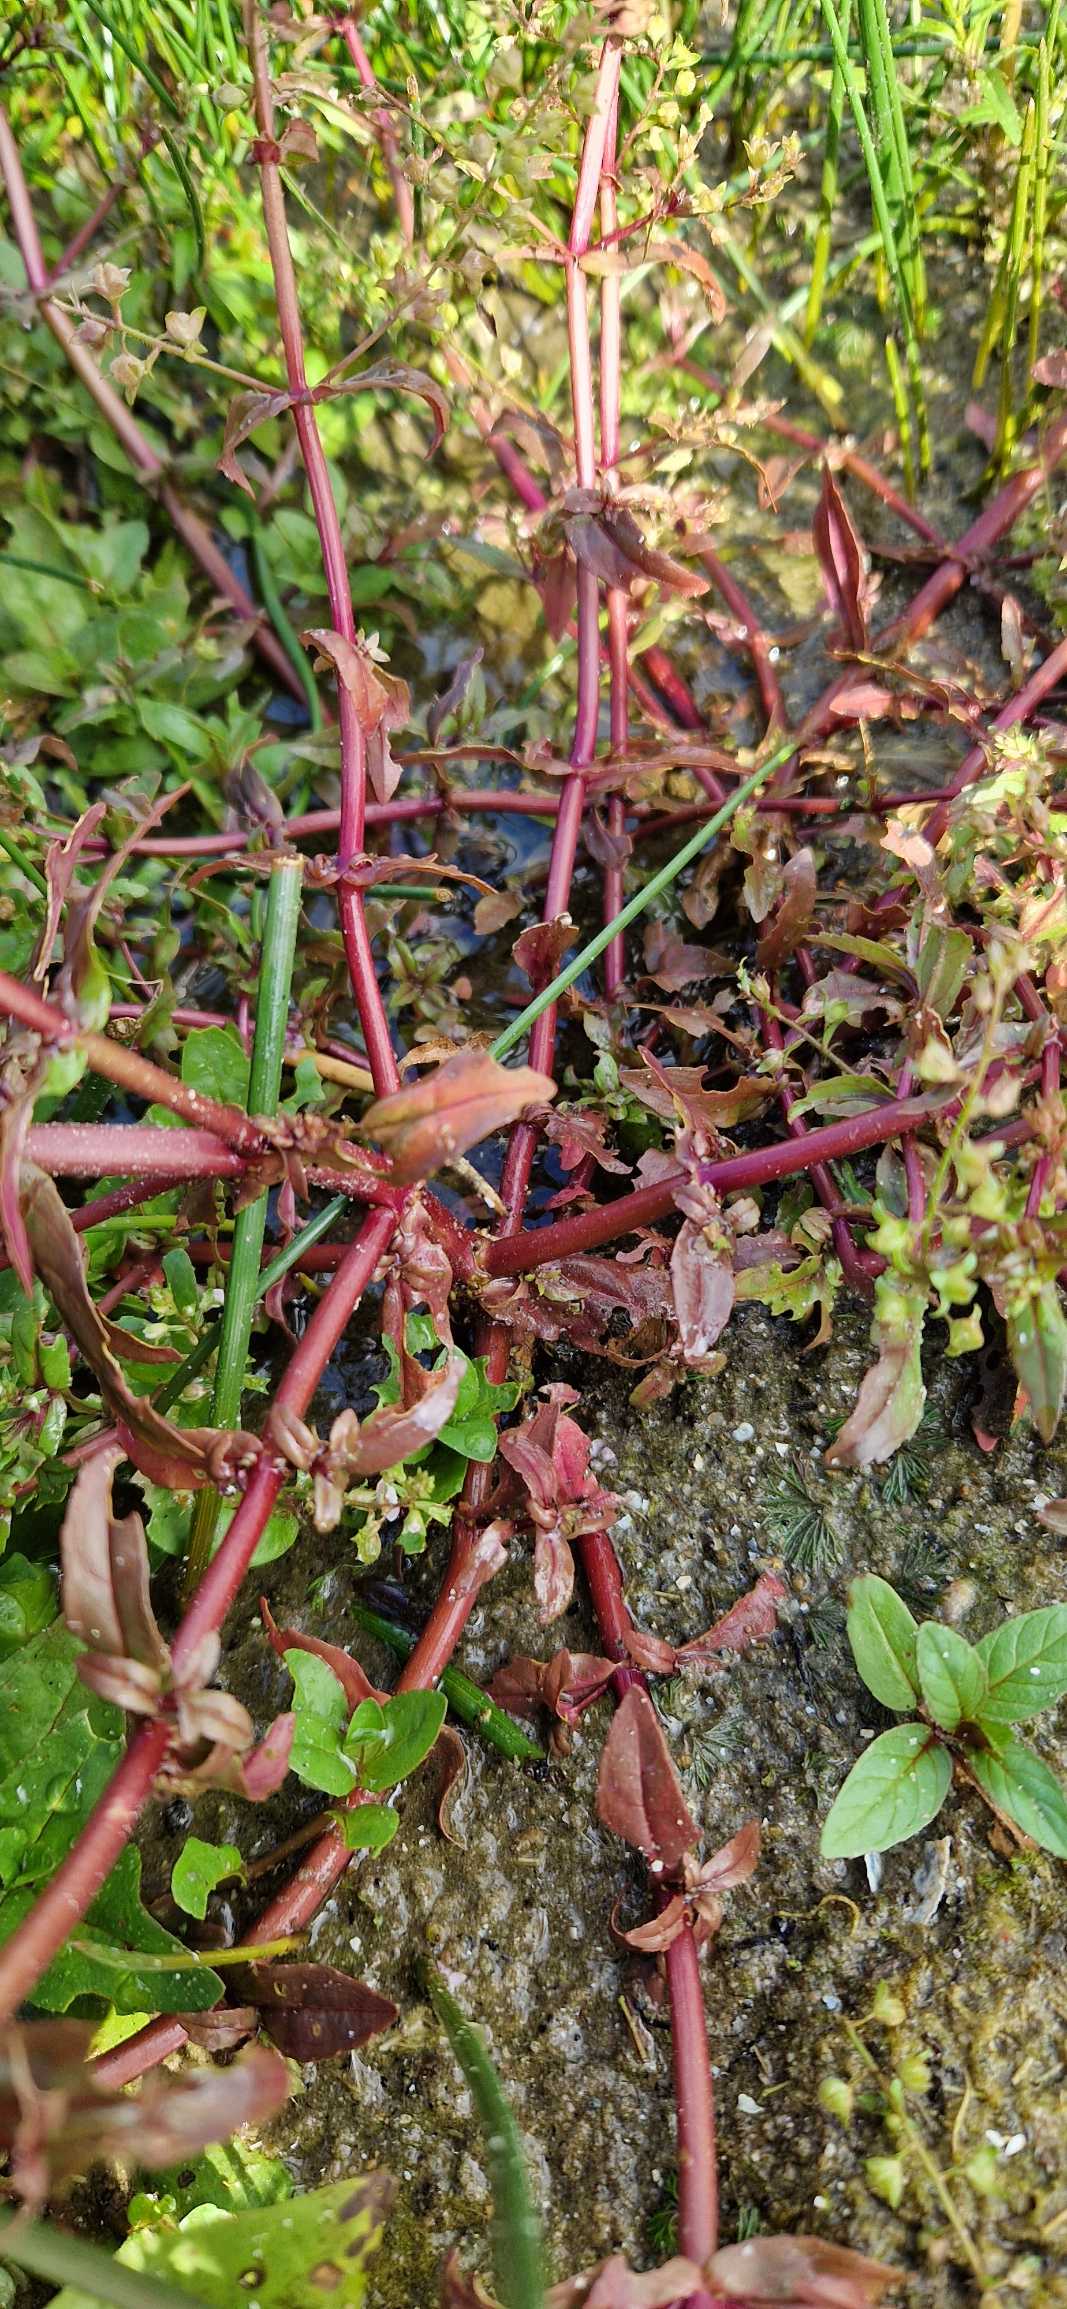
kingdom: Plantae
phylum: Tracheophyta
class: Magnoliopsida
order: Lamiales
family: Plantaginaceae
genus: Veronica
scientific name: Veronica catenata
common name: Vand-ærenpris
